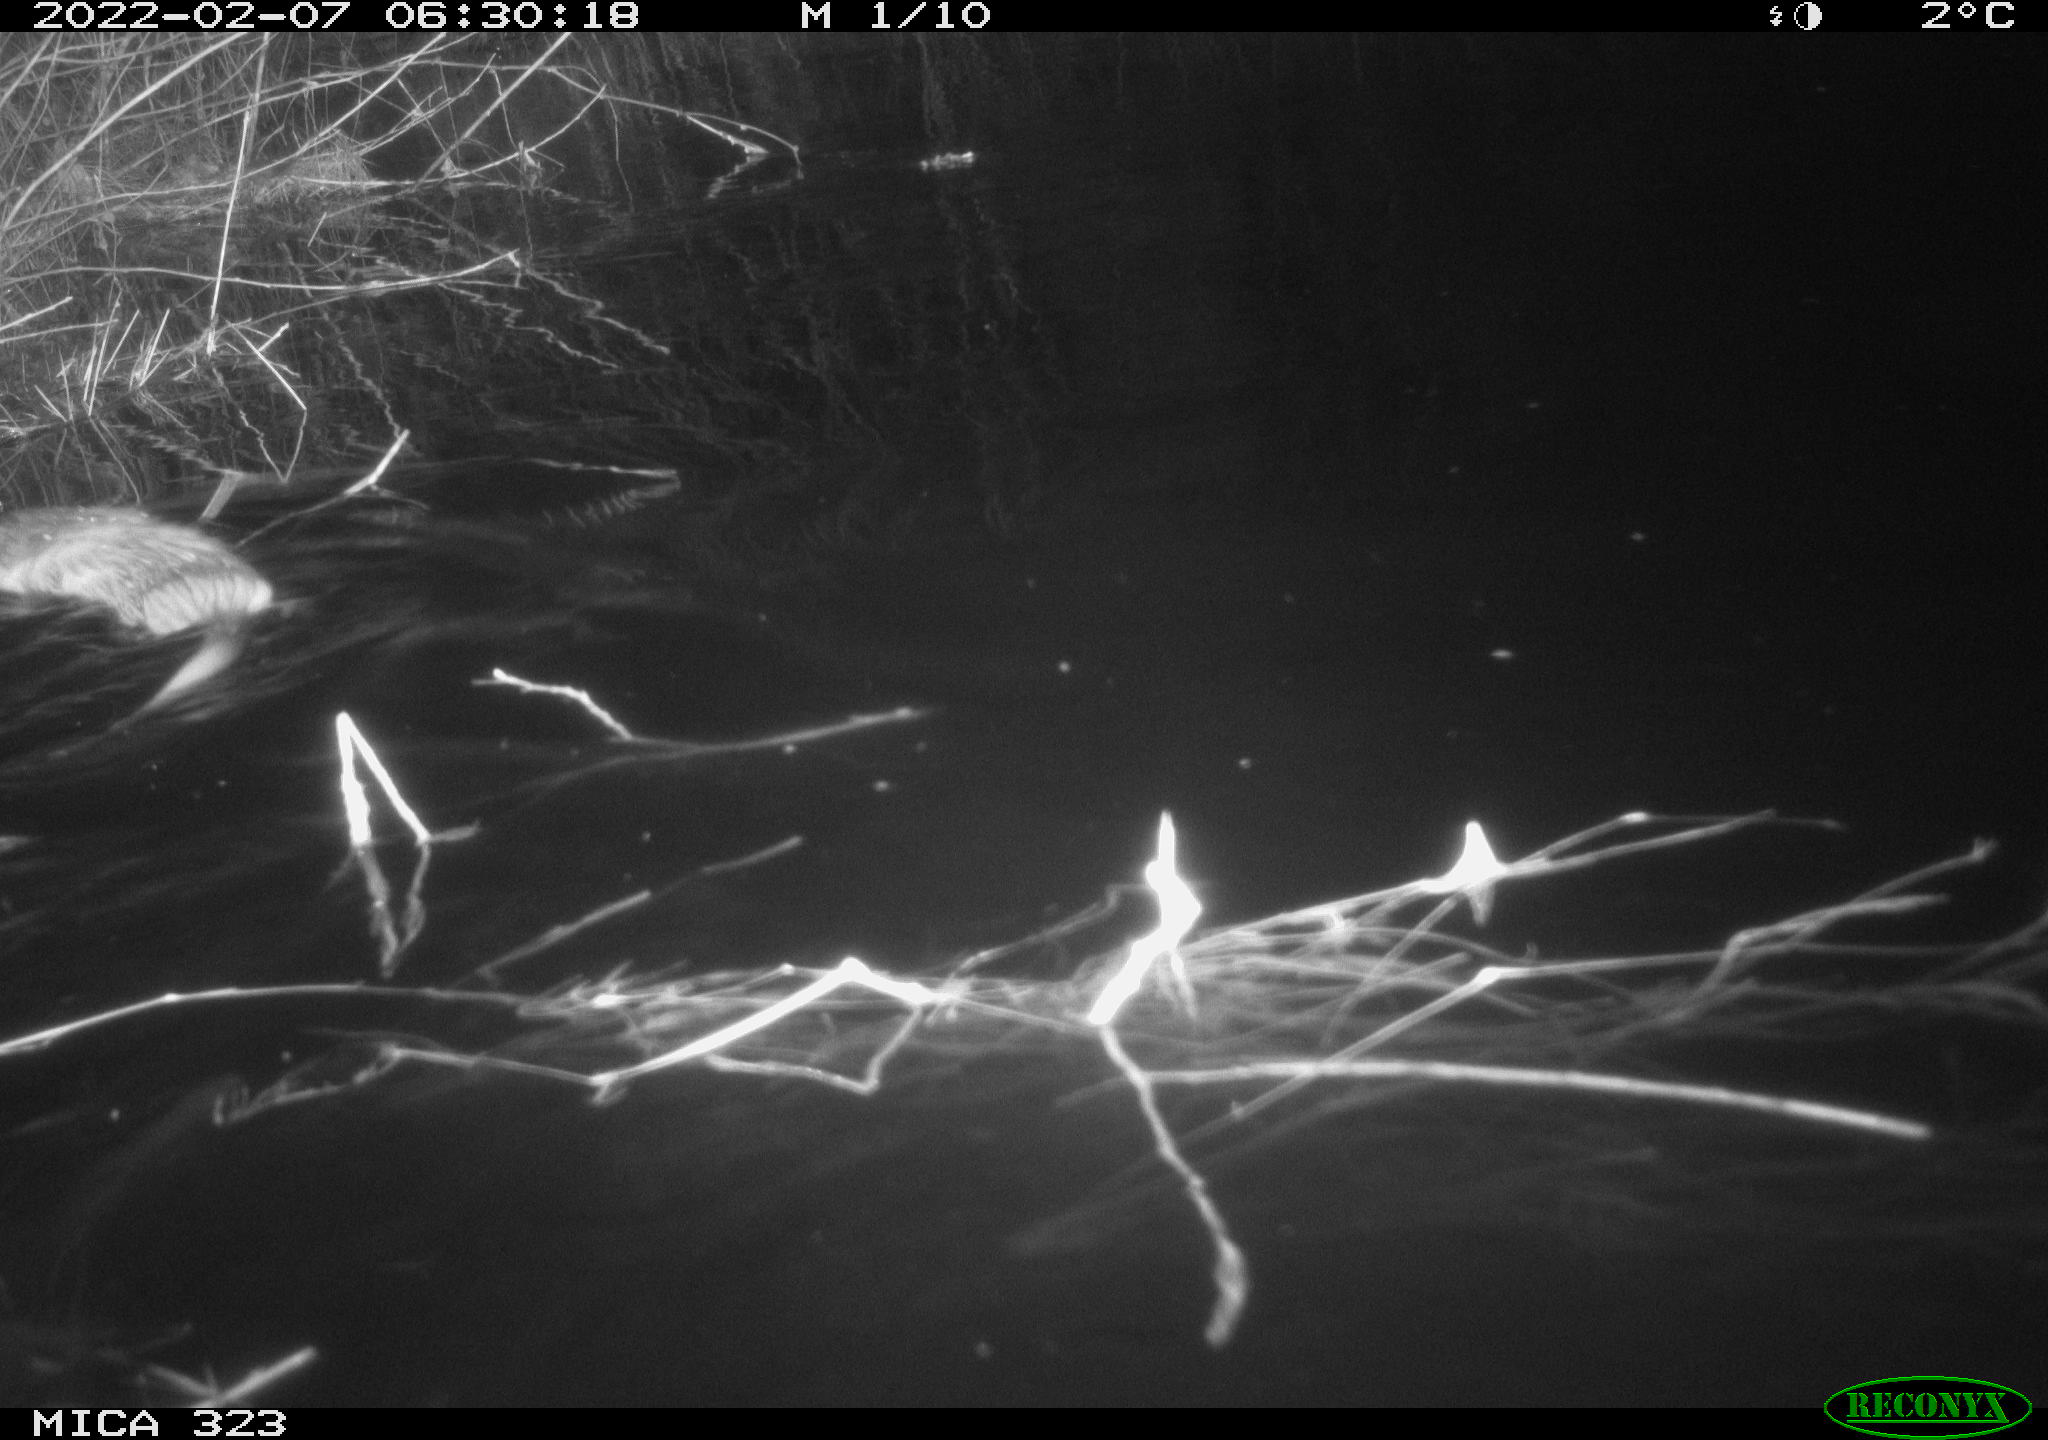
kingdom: Animalia
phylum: Chordata
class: Mammalia
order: Rodentia
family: Cricetidae
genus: Ondatra
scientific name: Ondatra zibethicus
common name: Muskrat
